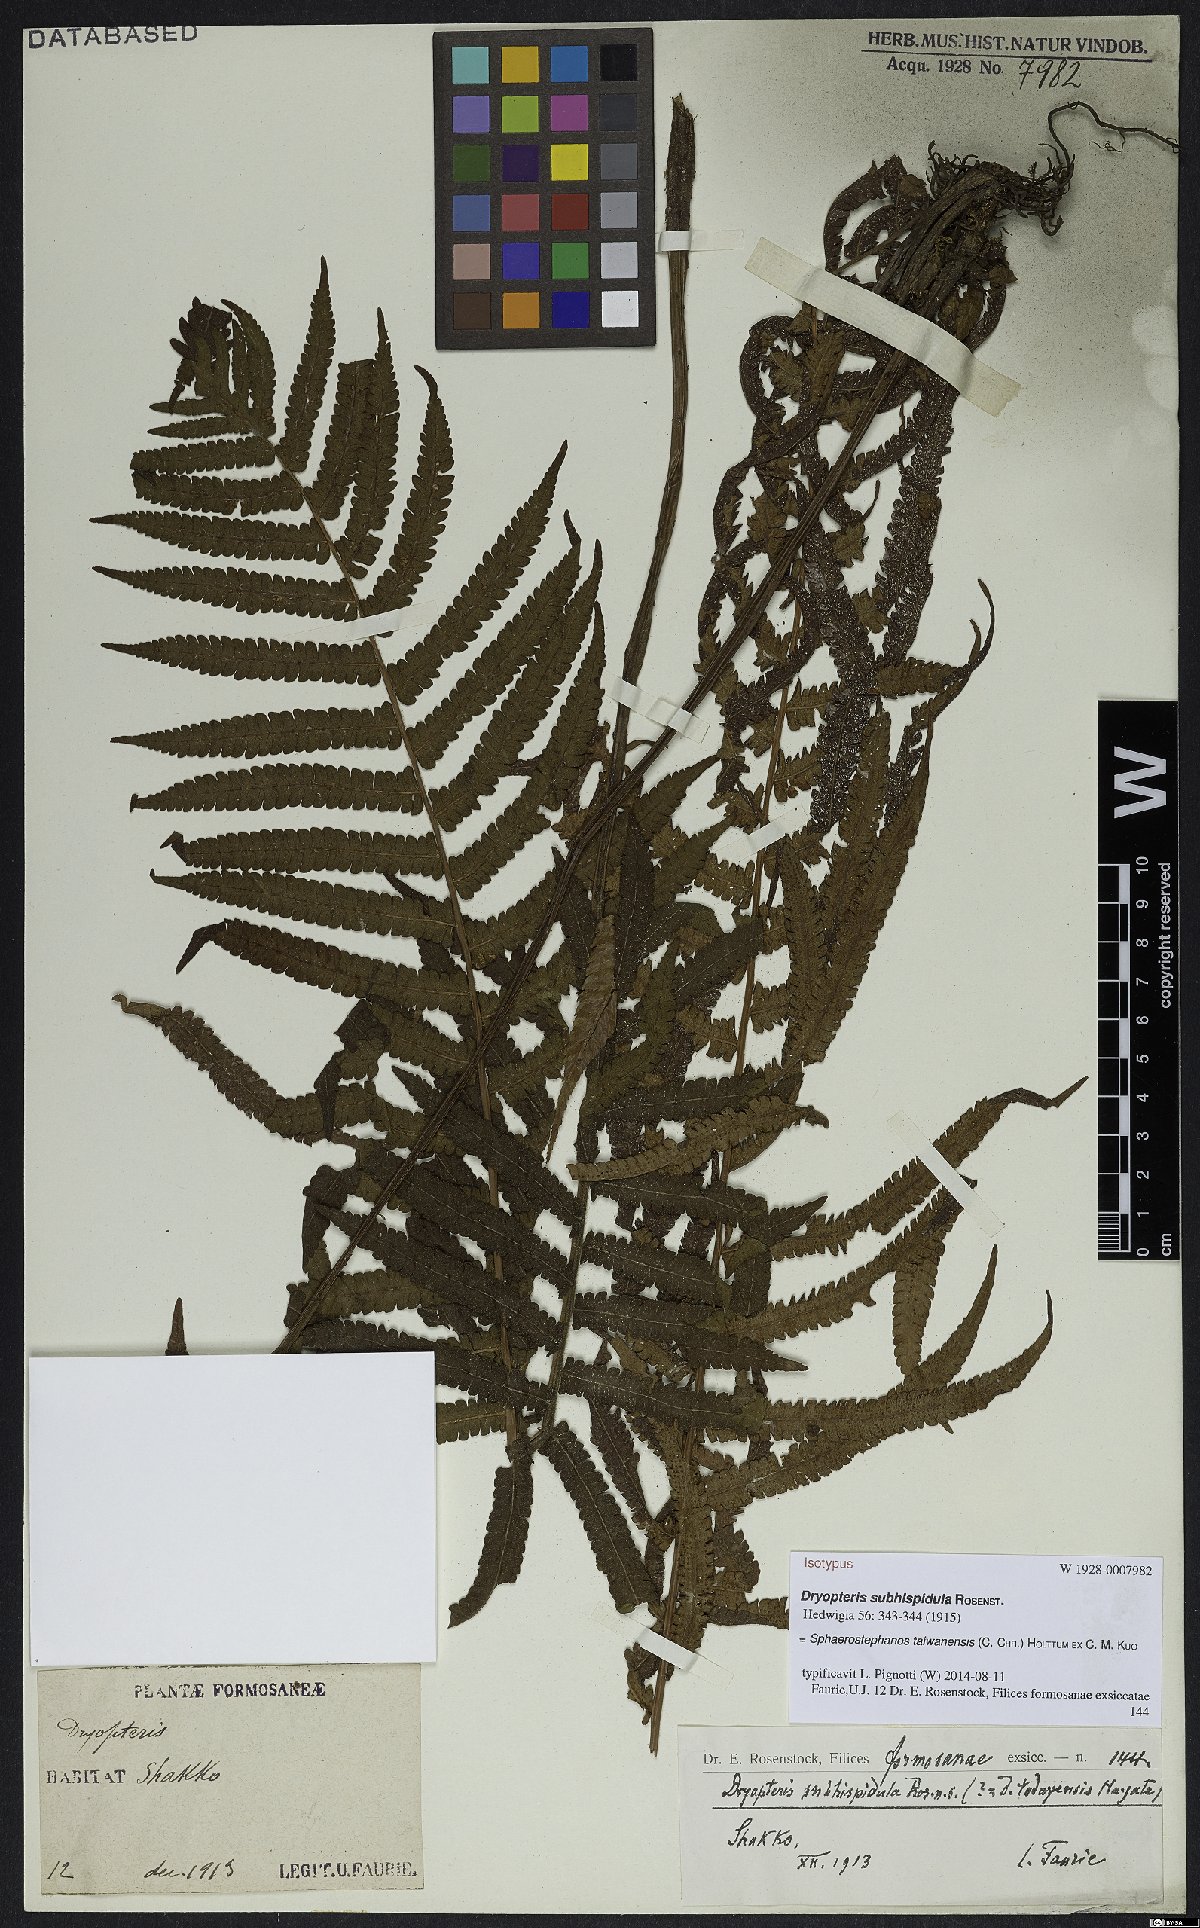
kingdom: Plantae
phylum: Tracheophyta
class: Polypodiopsida
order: Polypodiales
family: Thelypteridaceae
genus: Sphaerostephanos
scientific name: Sphaerostephanos taiwanensis
